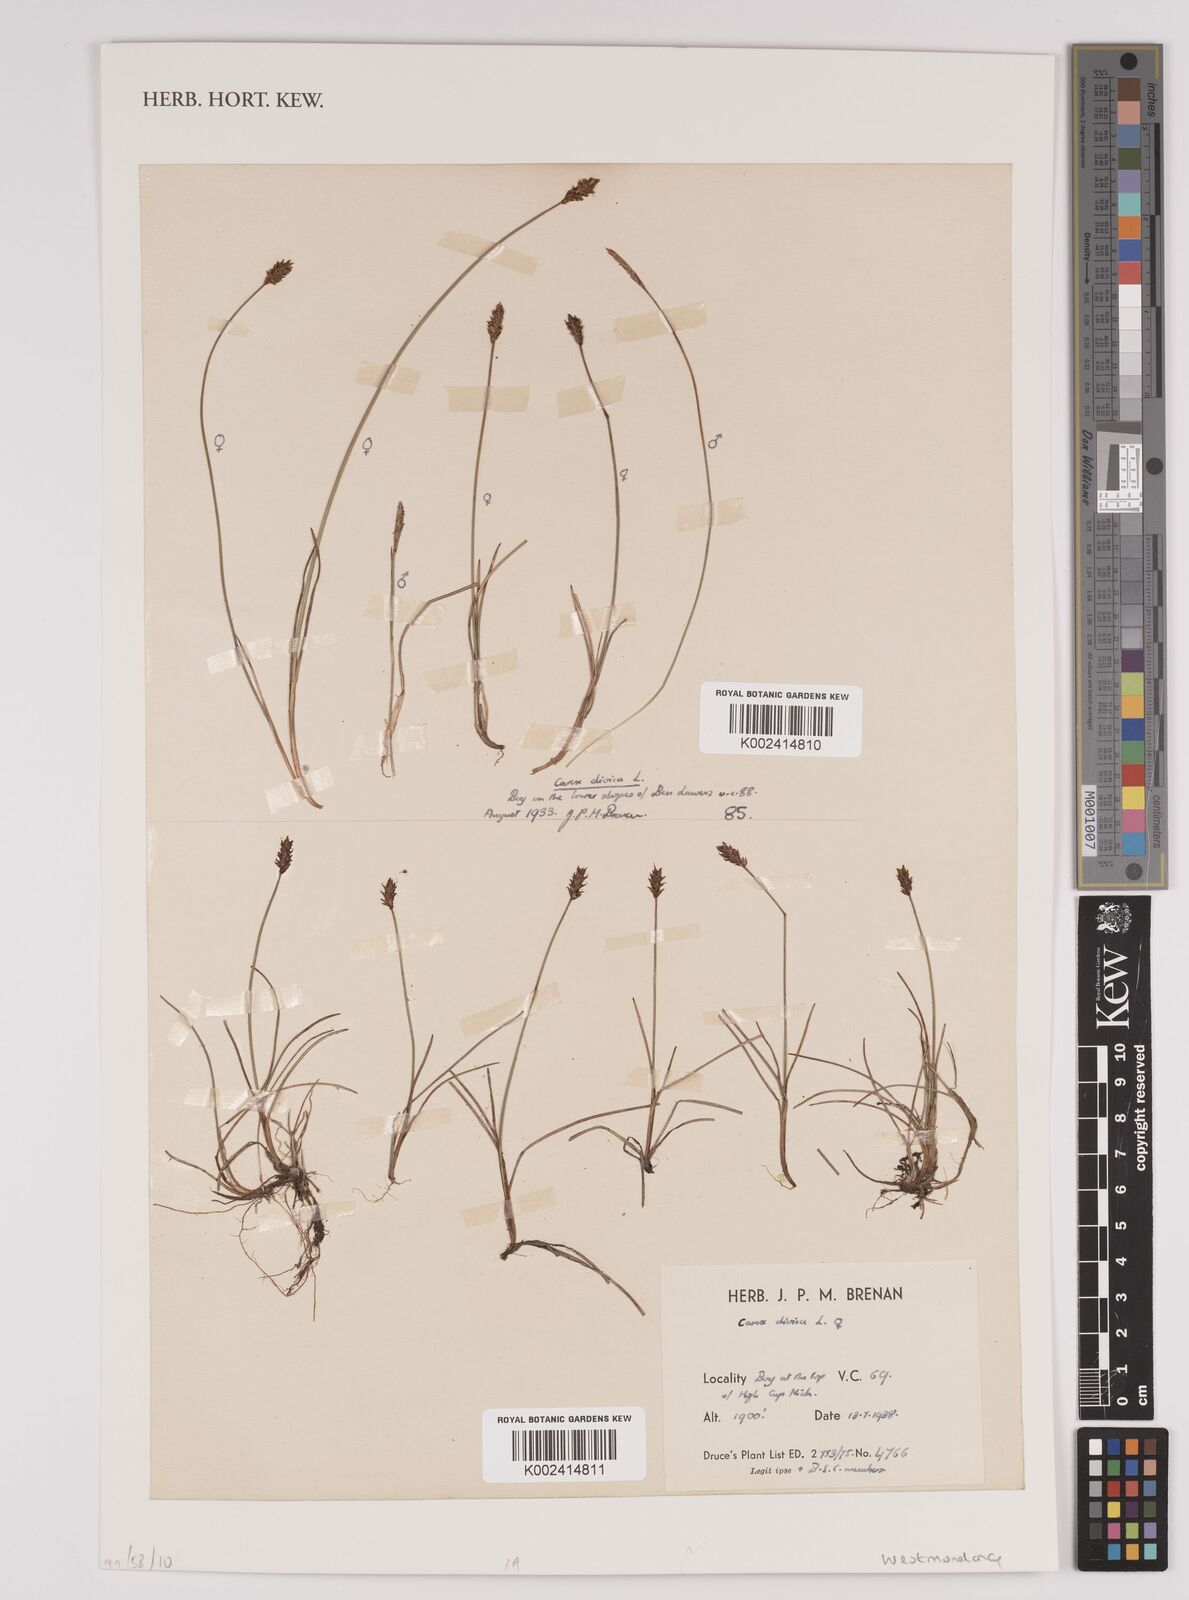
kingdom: Plantae
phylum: Tracheophyta
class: Liliopsida
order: Poales
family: Cyperaceae
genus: Carex
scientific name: Carex
